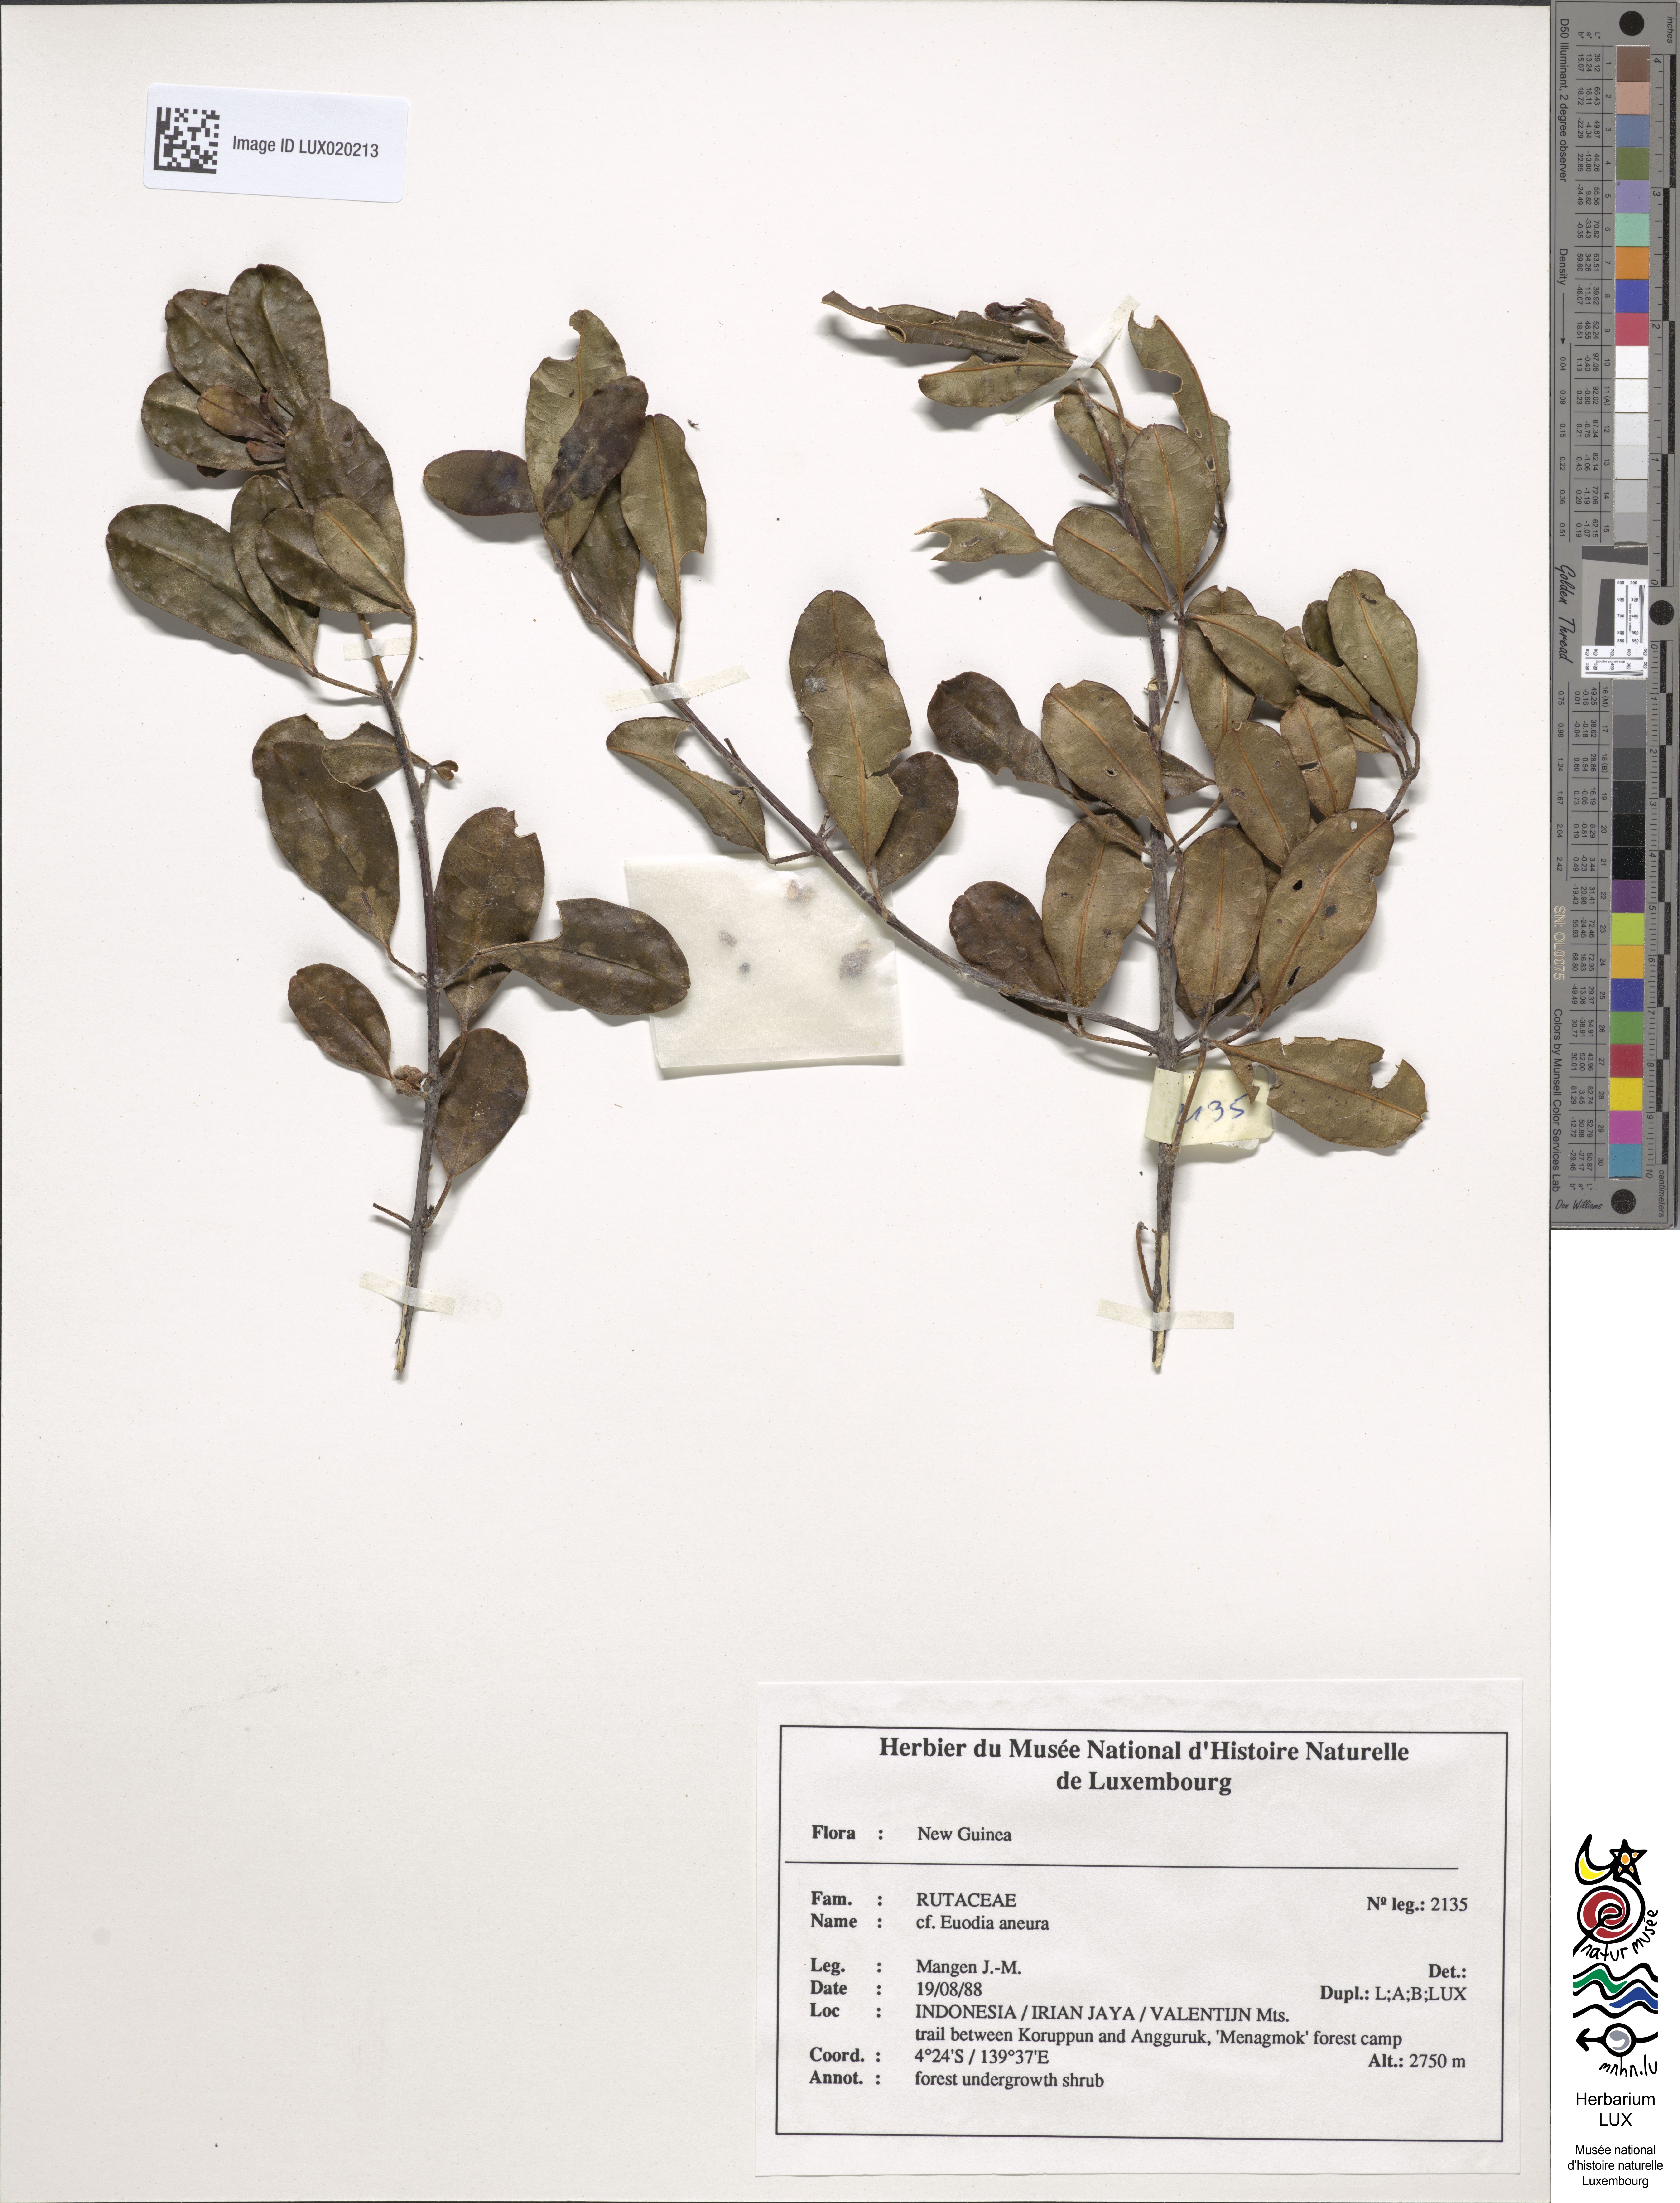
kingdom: Plantae
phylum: Tracheophyta
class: Magnoliopsida
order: Sapindales
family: Rutaceae
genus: Melicope
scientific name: Melicope aneura
